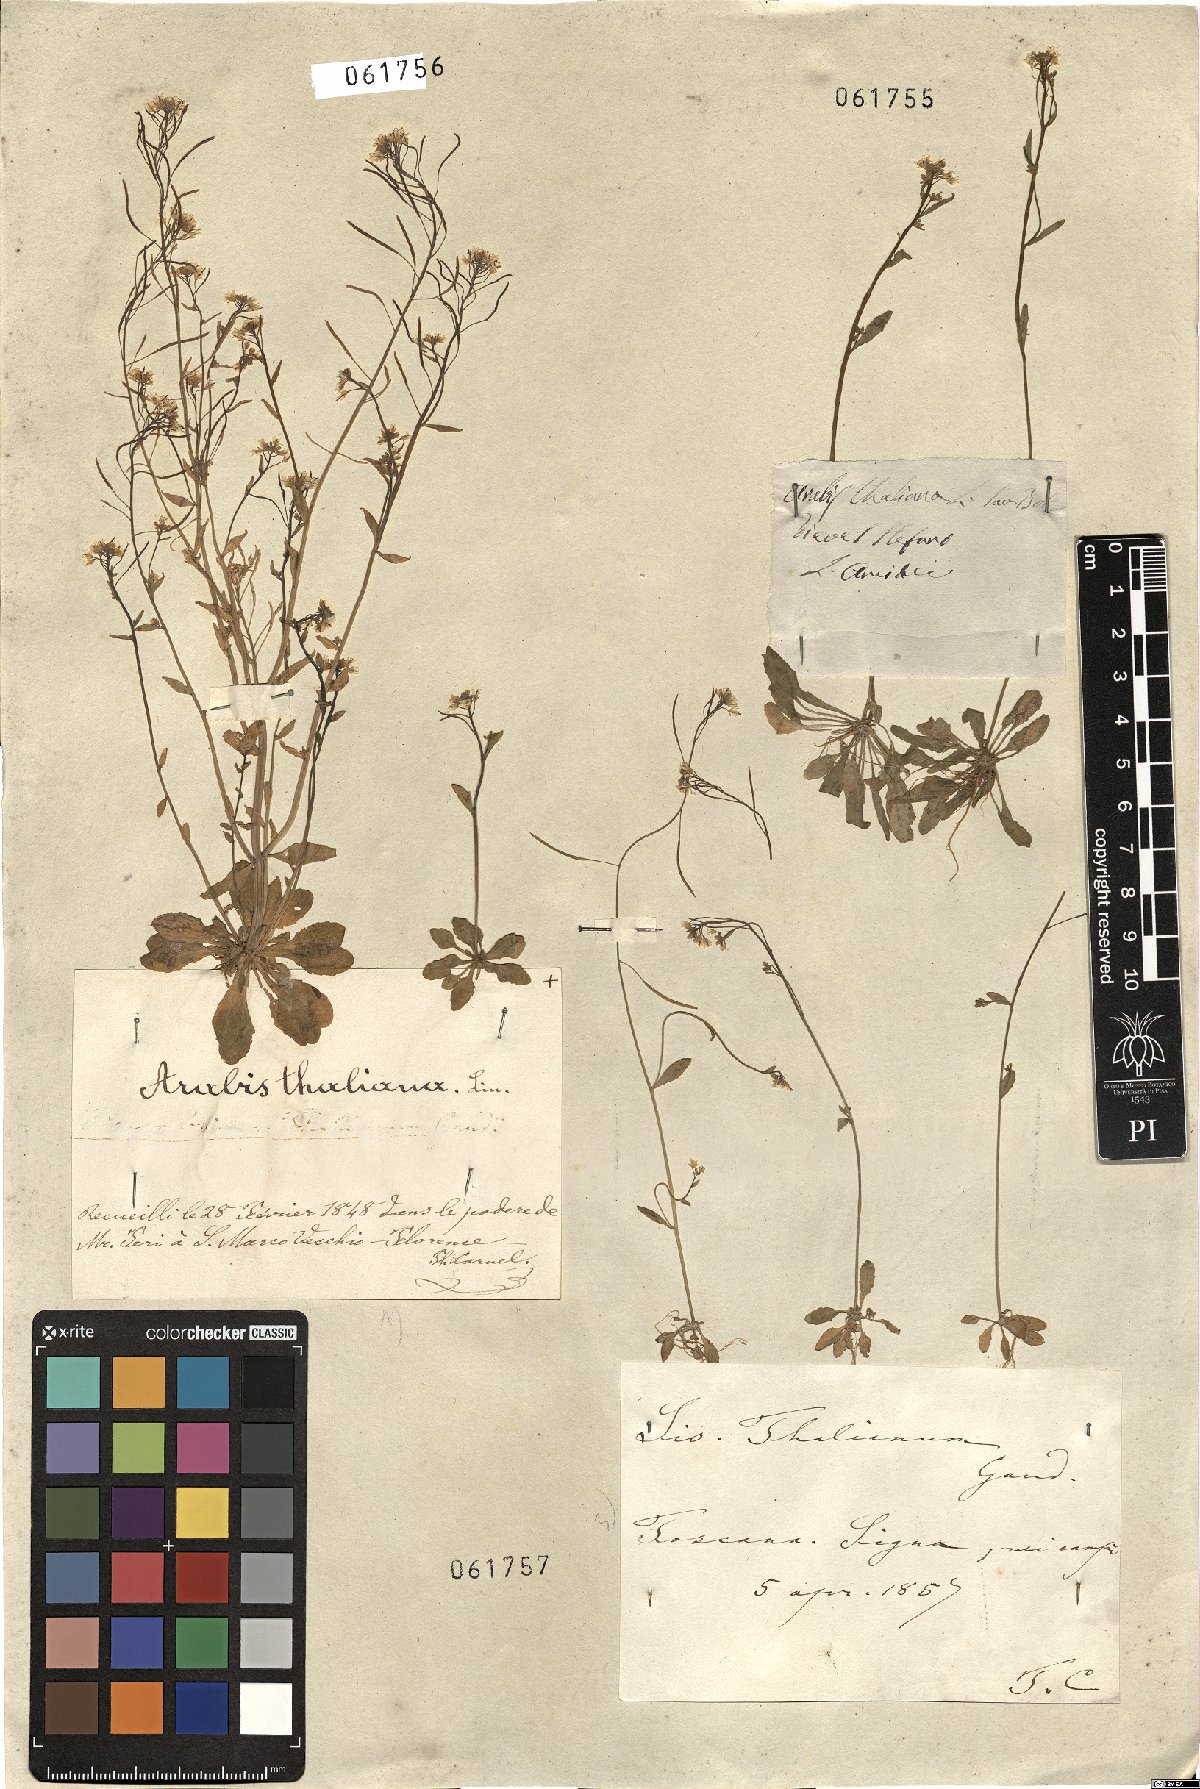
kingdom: Plantae
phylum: Tracheophyta
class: Magnoliopsida
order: Brassicales
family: Brassicaceae
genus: Arabidopsis
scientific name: Arabidopsis thaliana
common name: Thale cress
